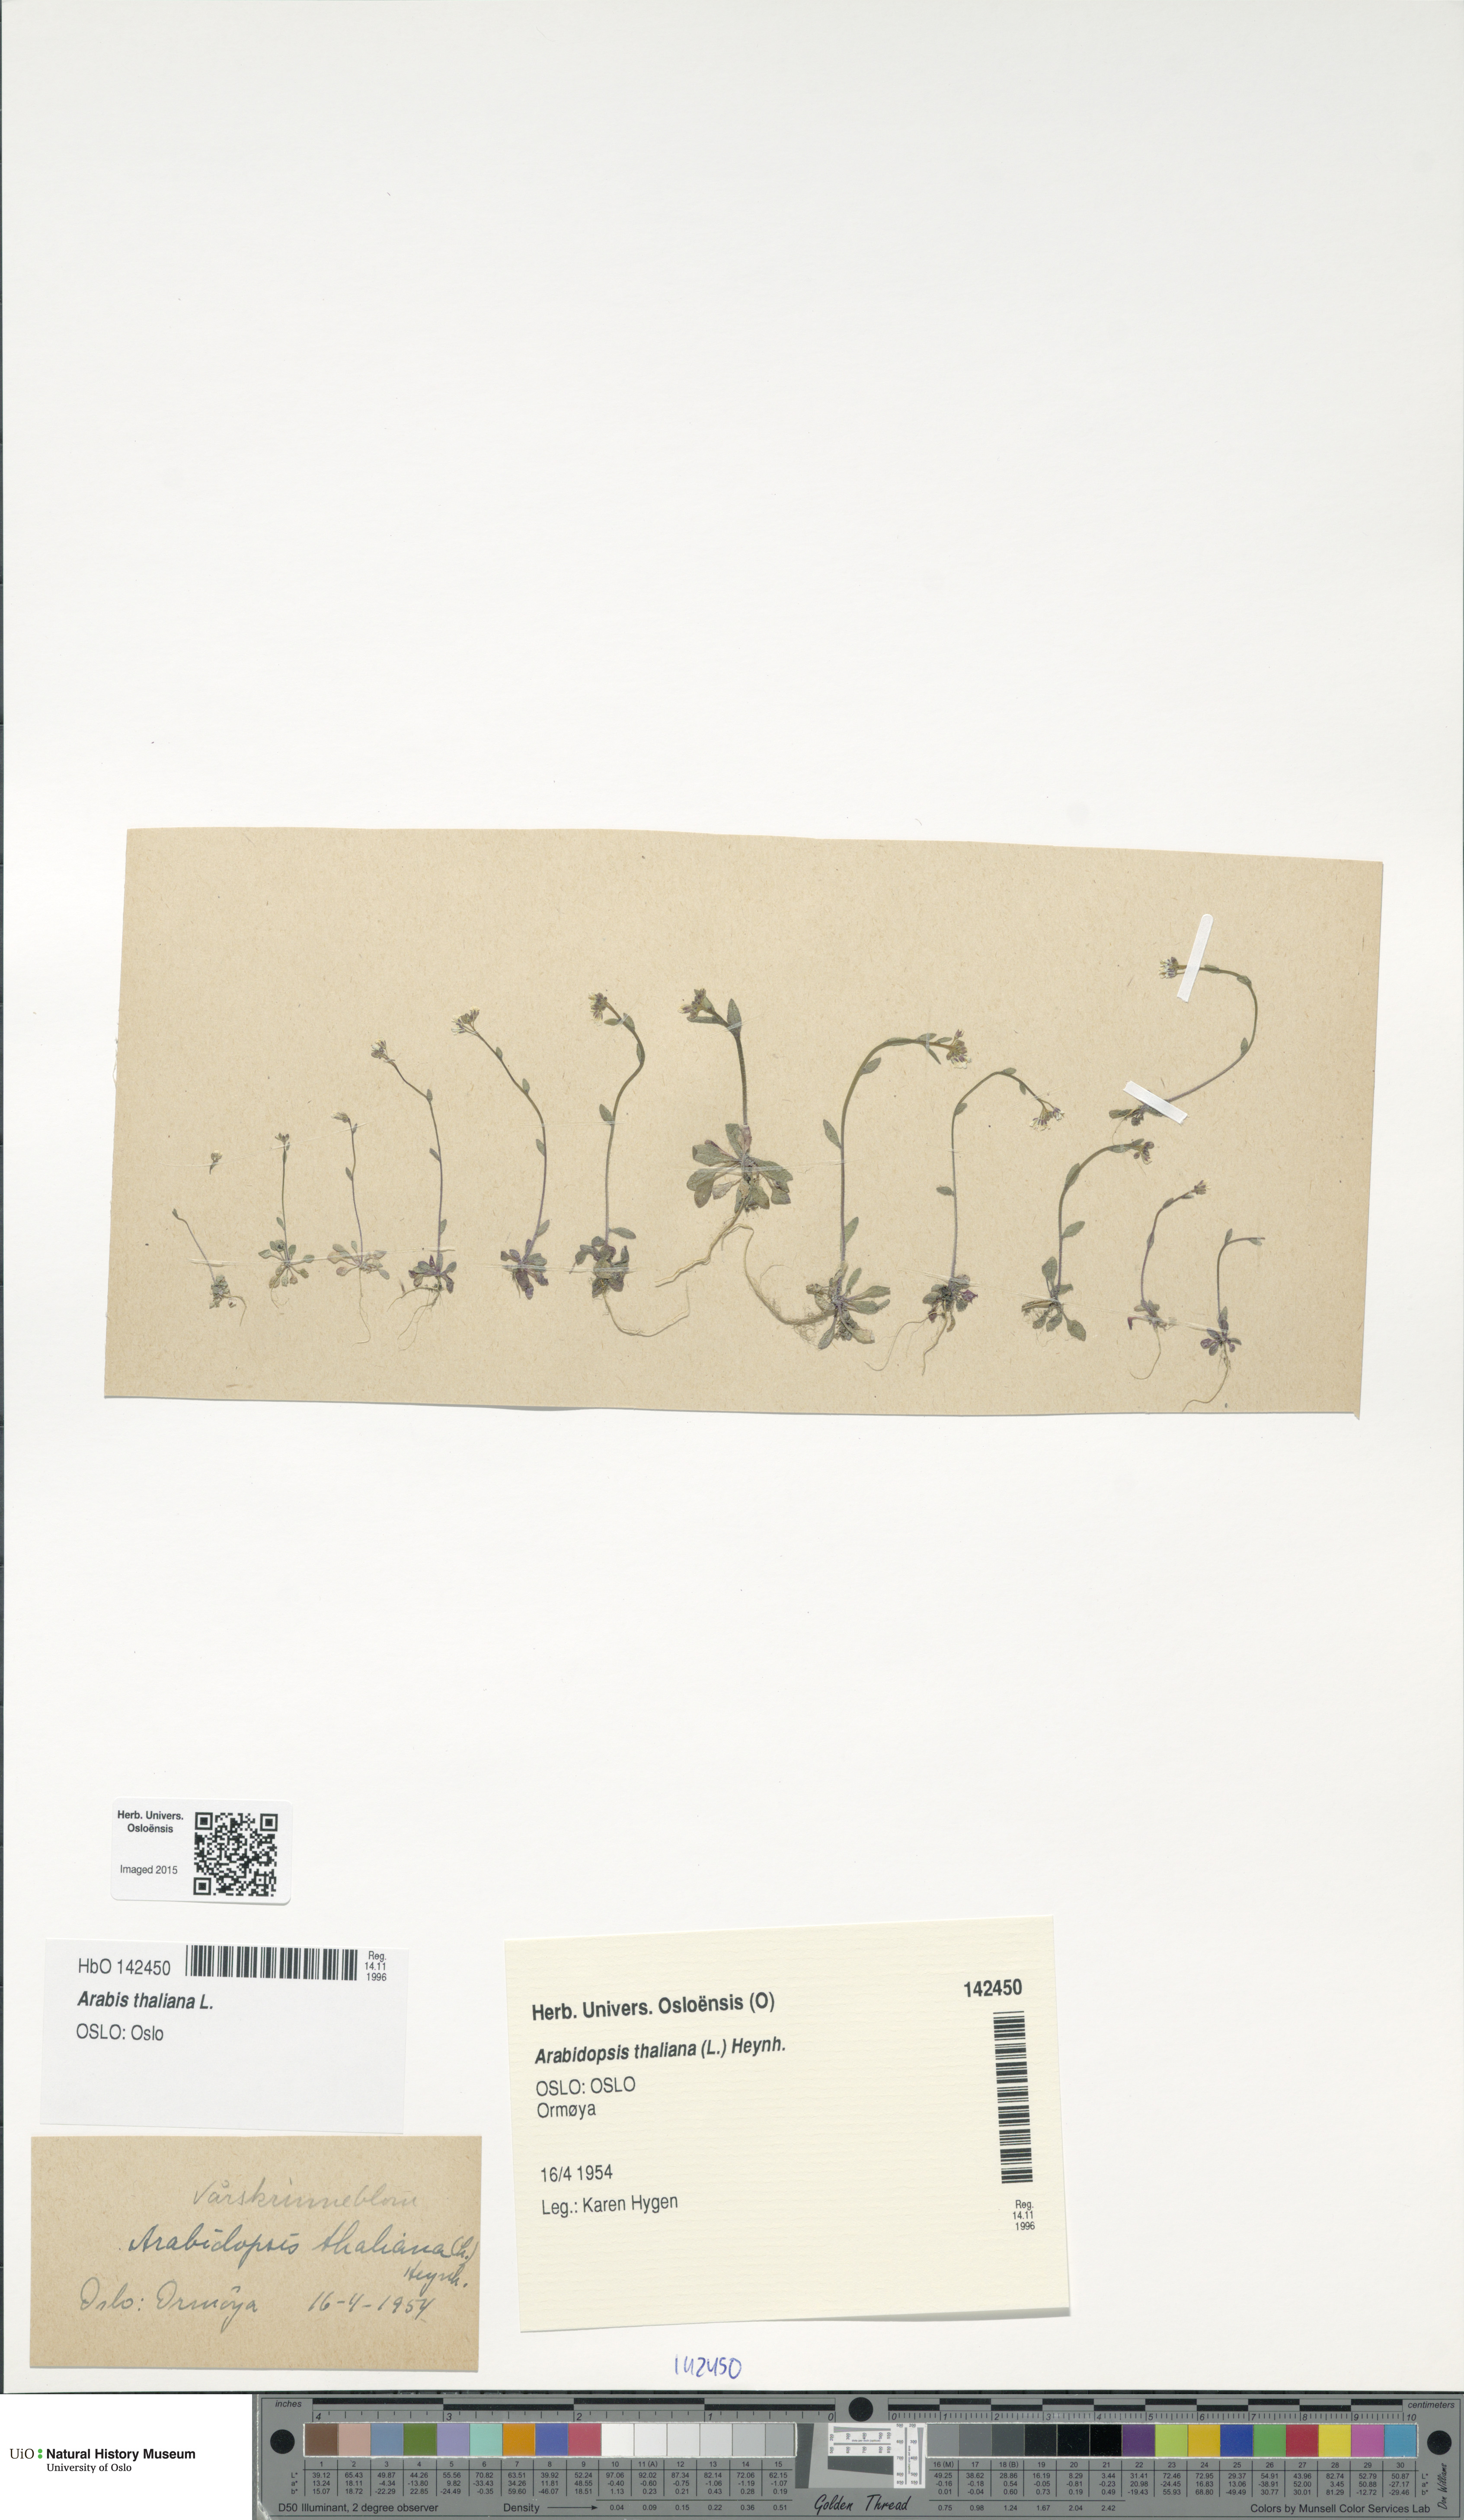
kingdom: Plantae
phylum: Tracheophyta
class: Magnoliopsida
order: Brassicales
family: Brassicaceae
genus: Arabidopsis
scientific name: Arabidopsis thaliana
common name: Thale cress
